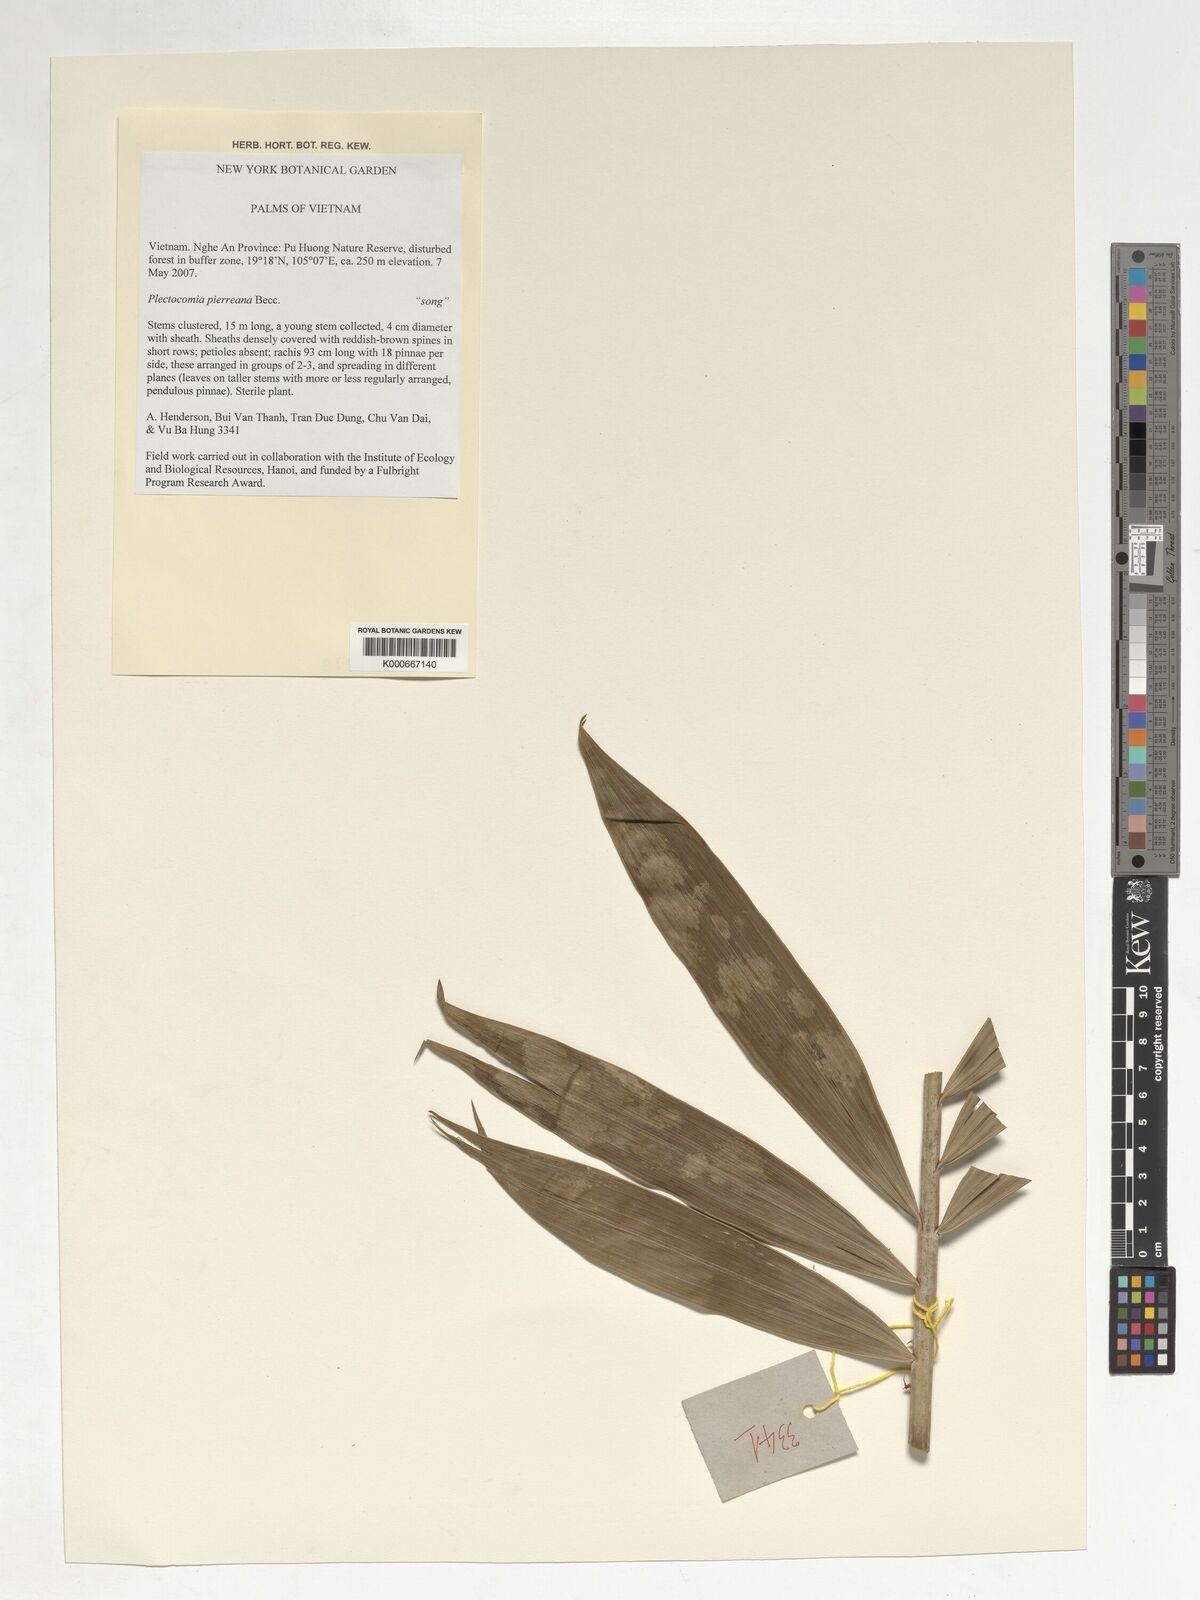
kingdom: Plantae
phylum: Tracheophyta
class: Liliopsida
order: Arecales
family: Arecaceae
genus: Plectocomia
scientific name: Plectocomia pierreana
